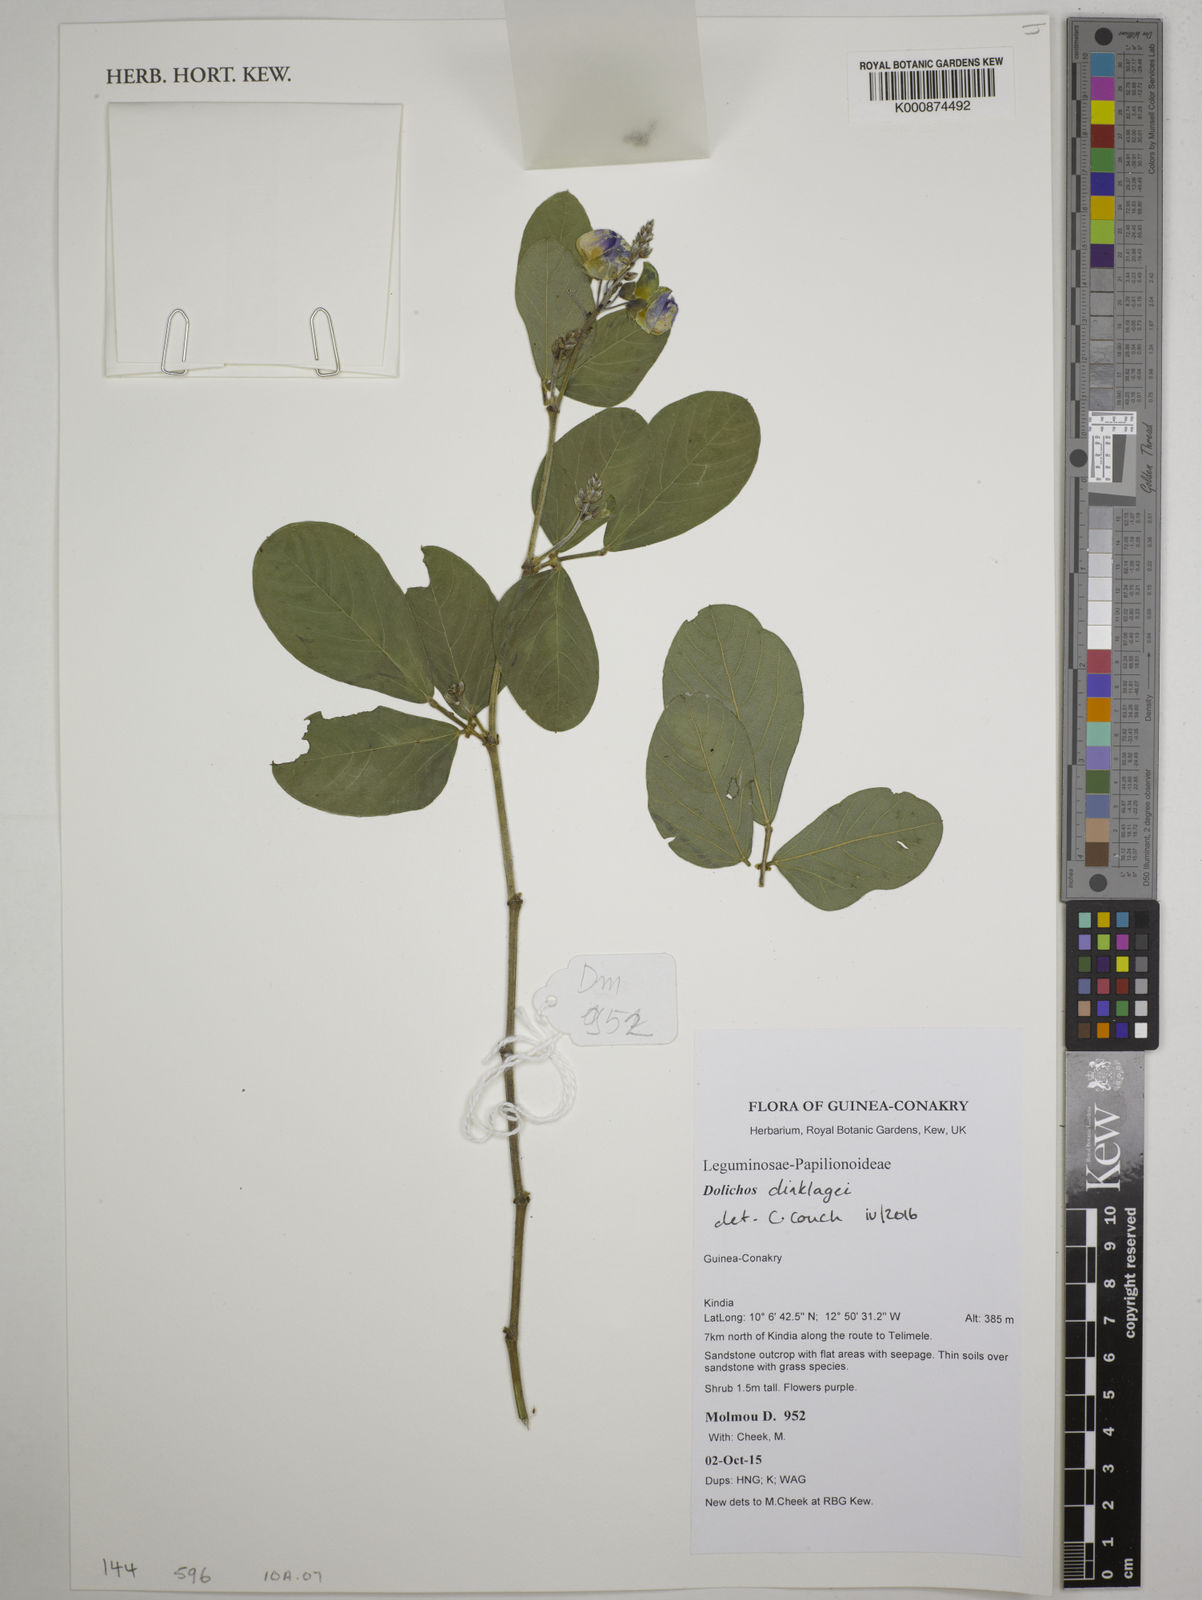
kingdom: Plantae
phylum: Tracheophyta
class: Magnoliopsida
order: Fabales
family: Fabaceae
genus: Dolichos
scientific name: Dolichos dinklagei
